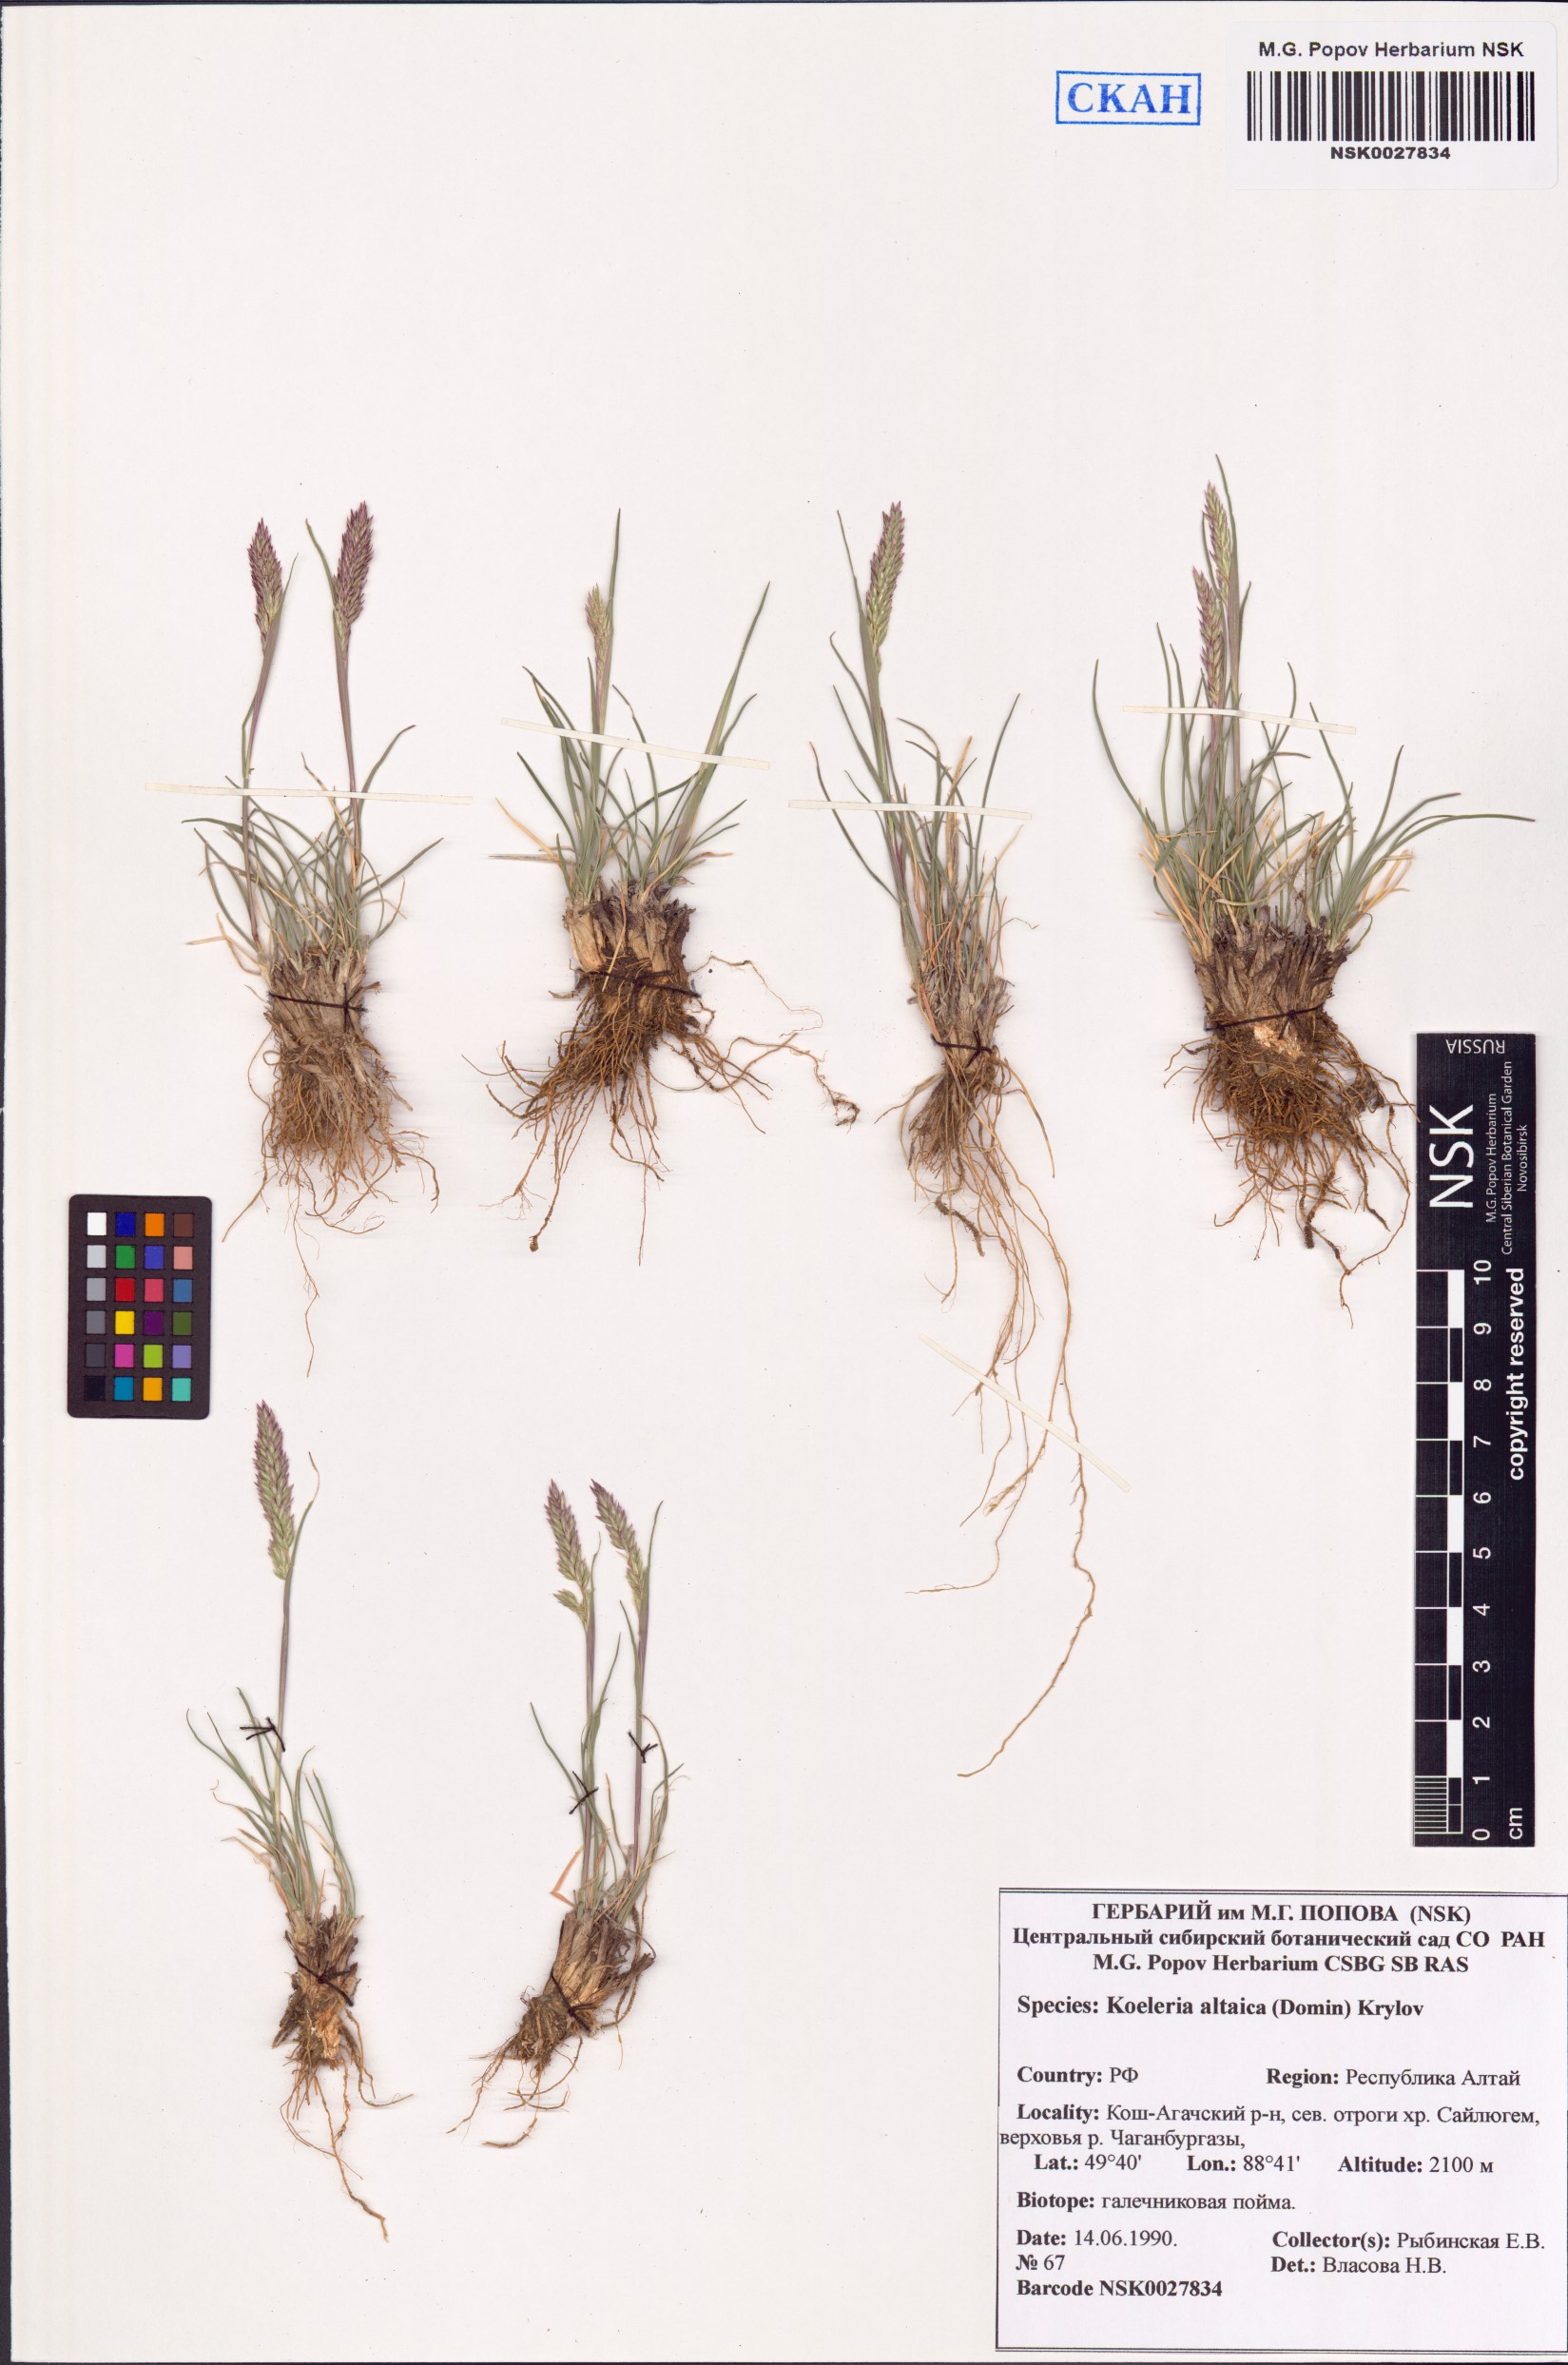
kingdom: Plantae
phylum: Tracheophyta
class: Liliopsida
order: Poales
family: Poaceae
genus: Koeleria
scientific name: Koeleria altaica
